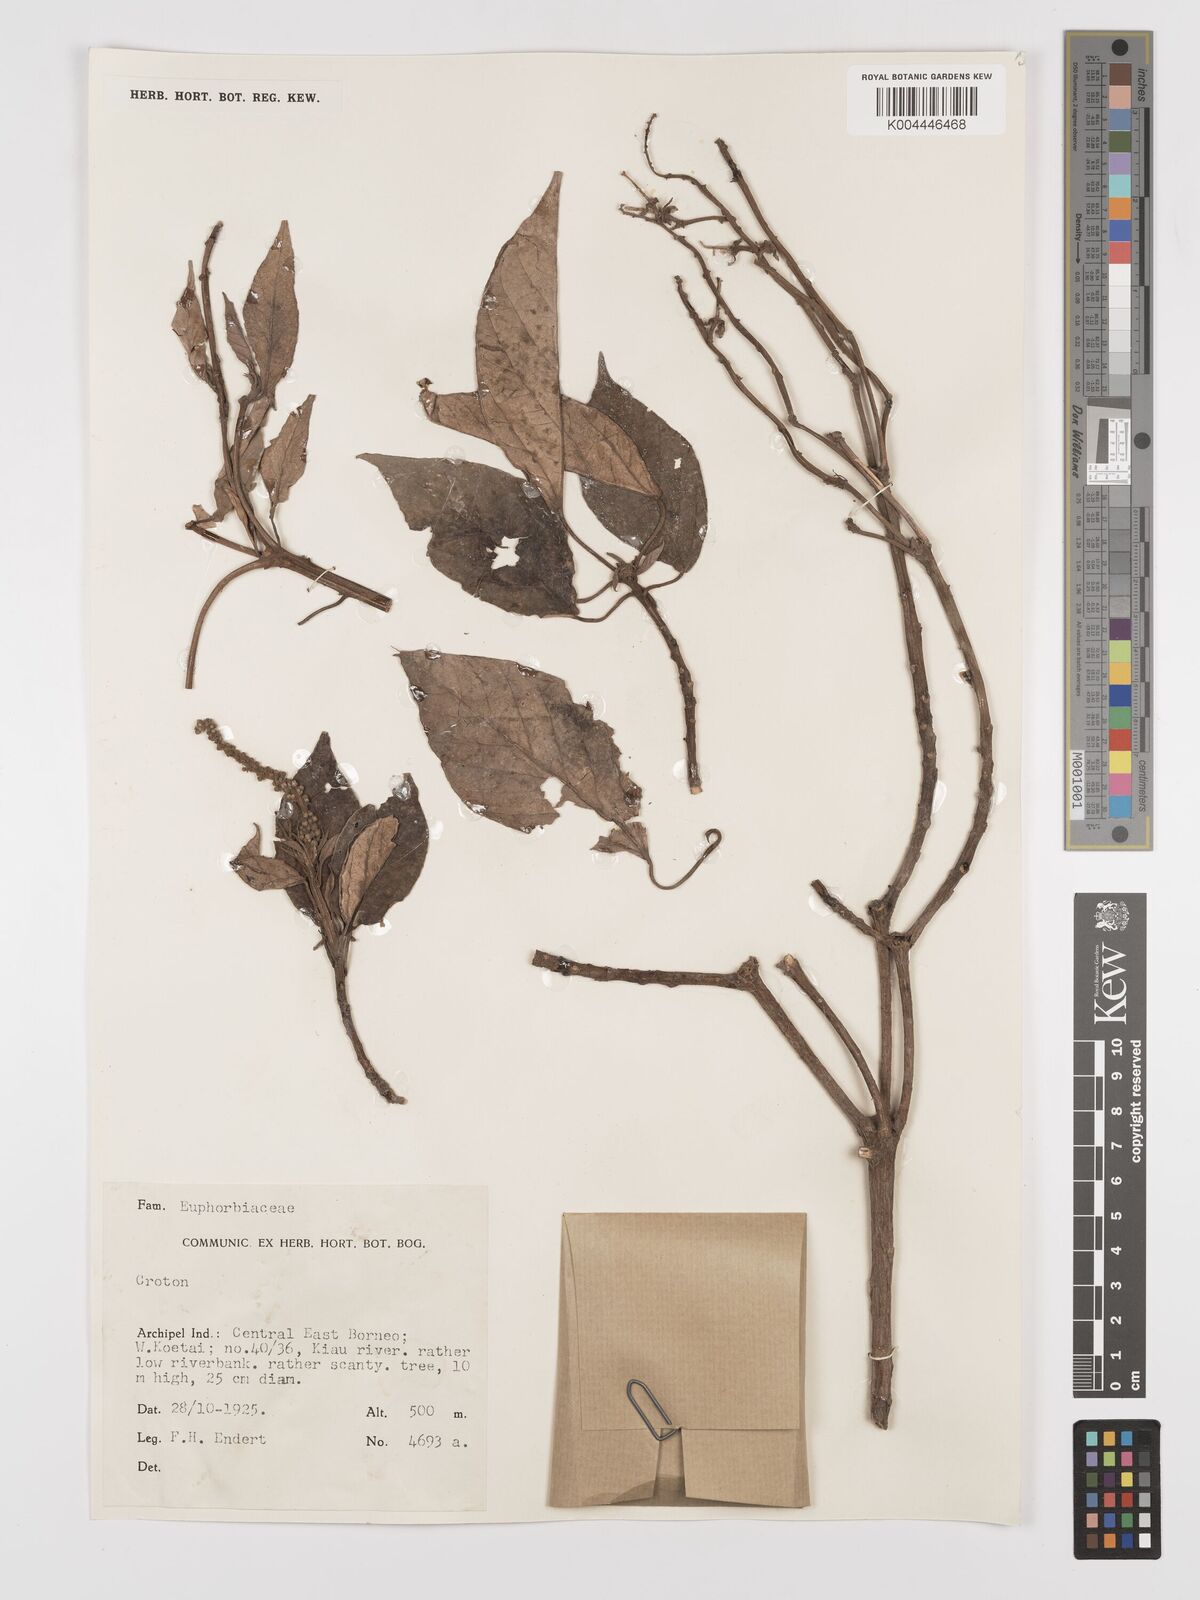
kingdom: Plantae
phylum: Tracheophyta
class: Magnoliopsida
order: Malpighiales
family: Euphorbiaceae
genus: Croton
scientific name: Croton argyratus
